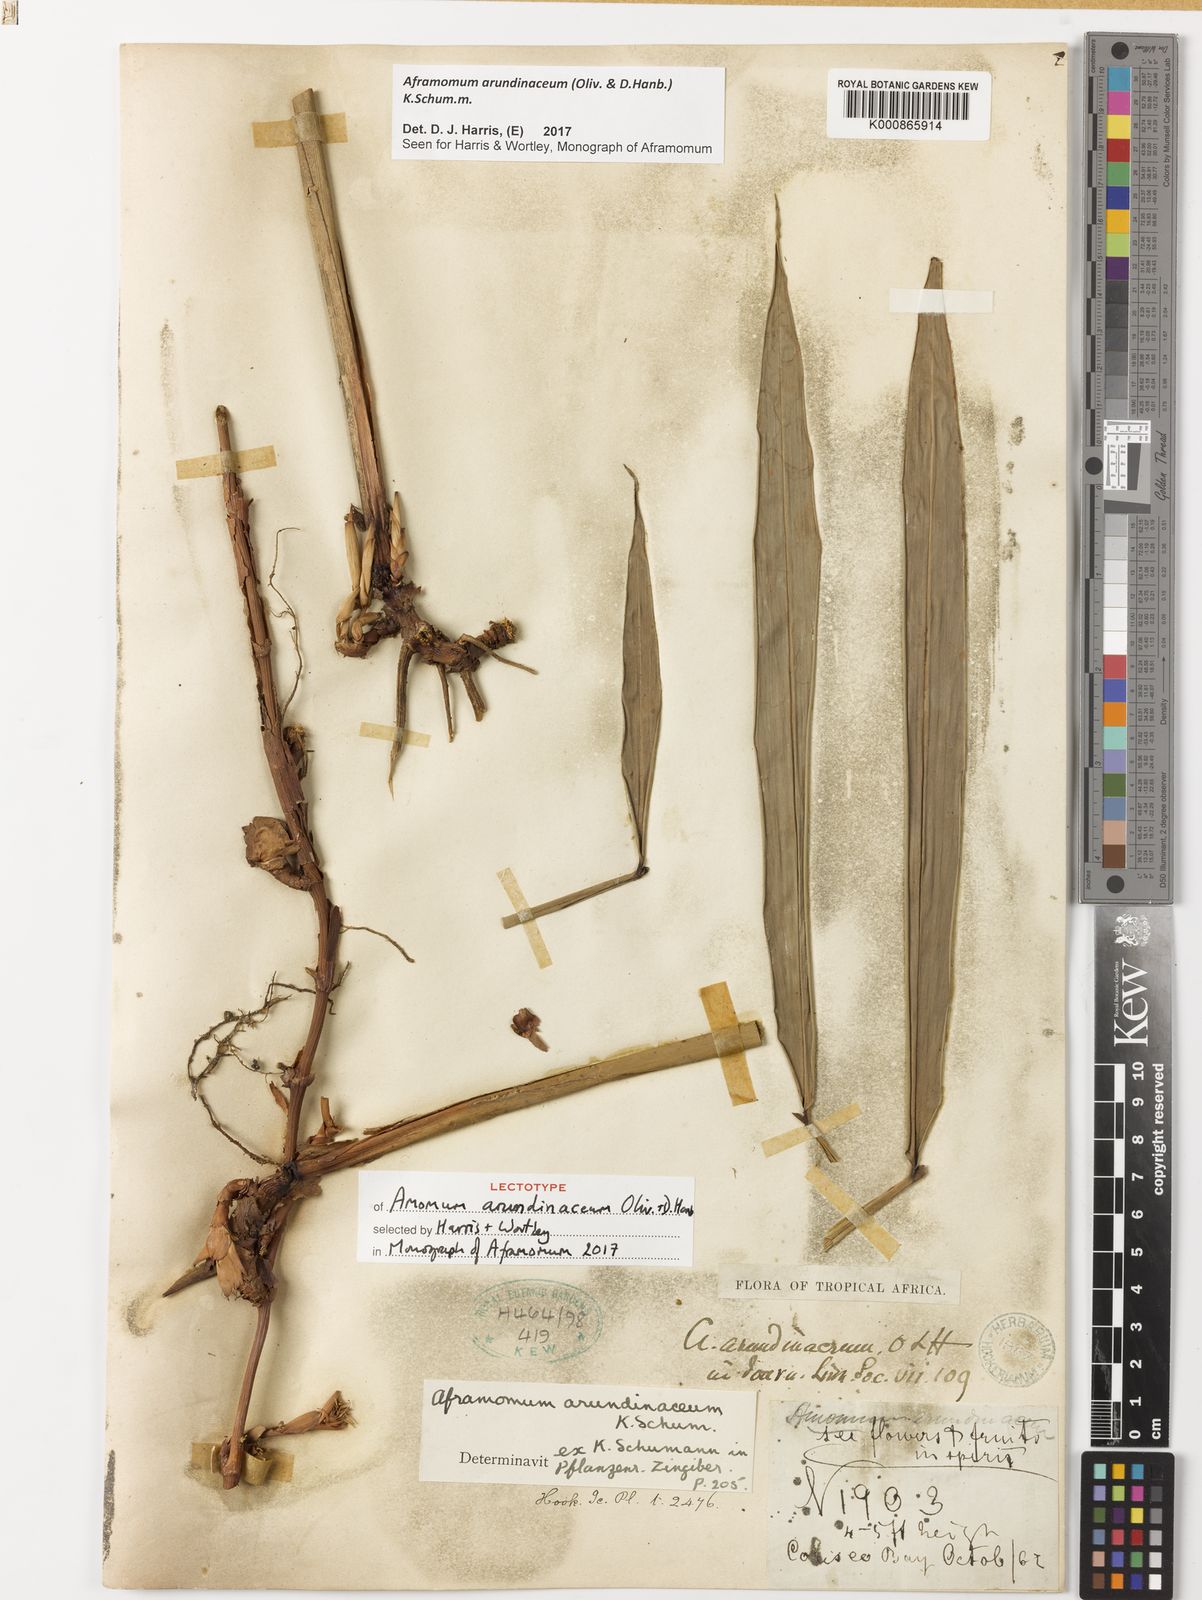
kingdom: Plantae
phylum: Tracheophyta
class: Liliopsida
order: Zingiberales
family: Zingiberaceae
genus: Aframomum
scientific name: Aframomum arundinaceum
